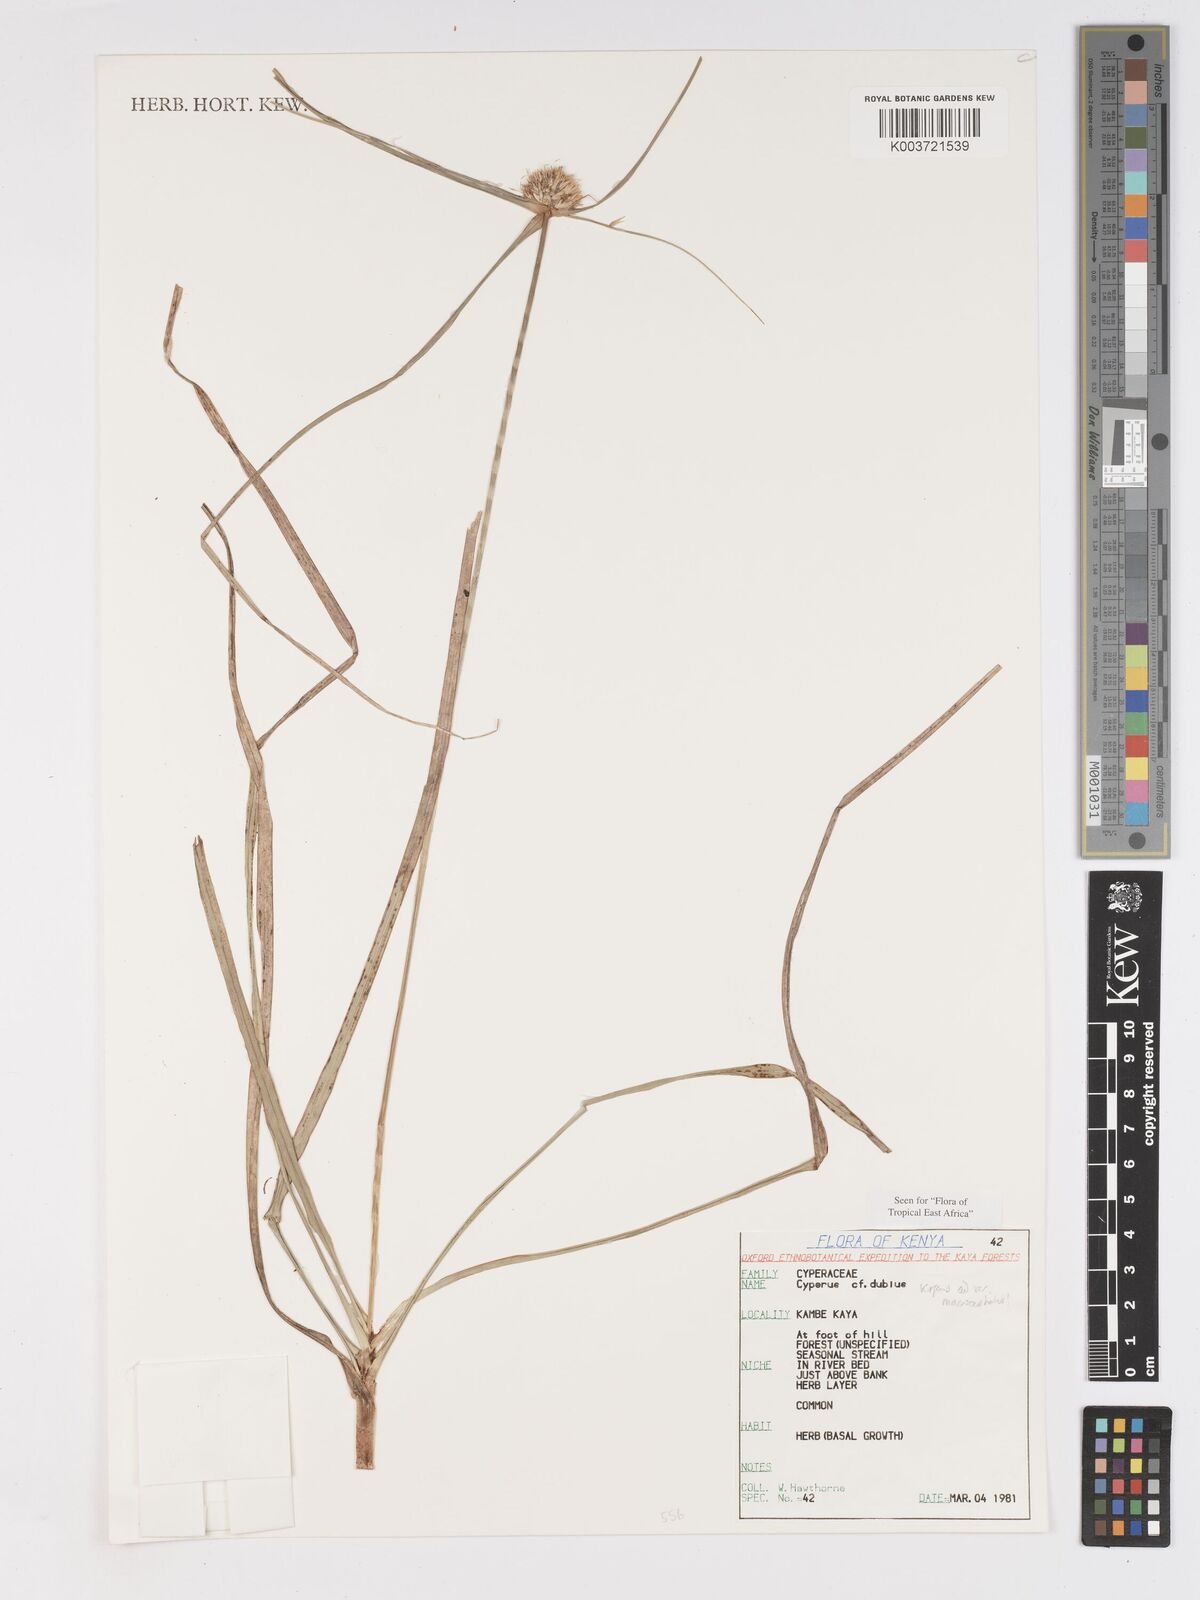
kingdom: Plantae
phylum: Tracheophyta
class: Liliopsida
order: Poales
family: Cyperaceae
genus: Cyperus
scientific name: Cyperus dubius
